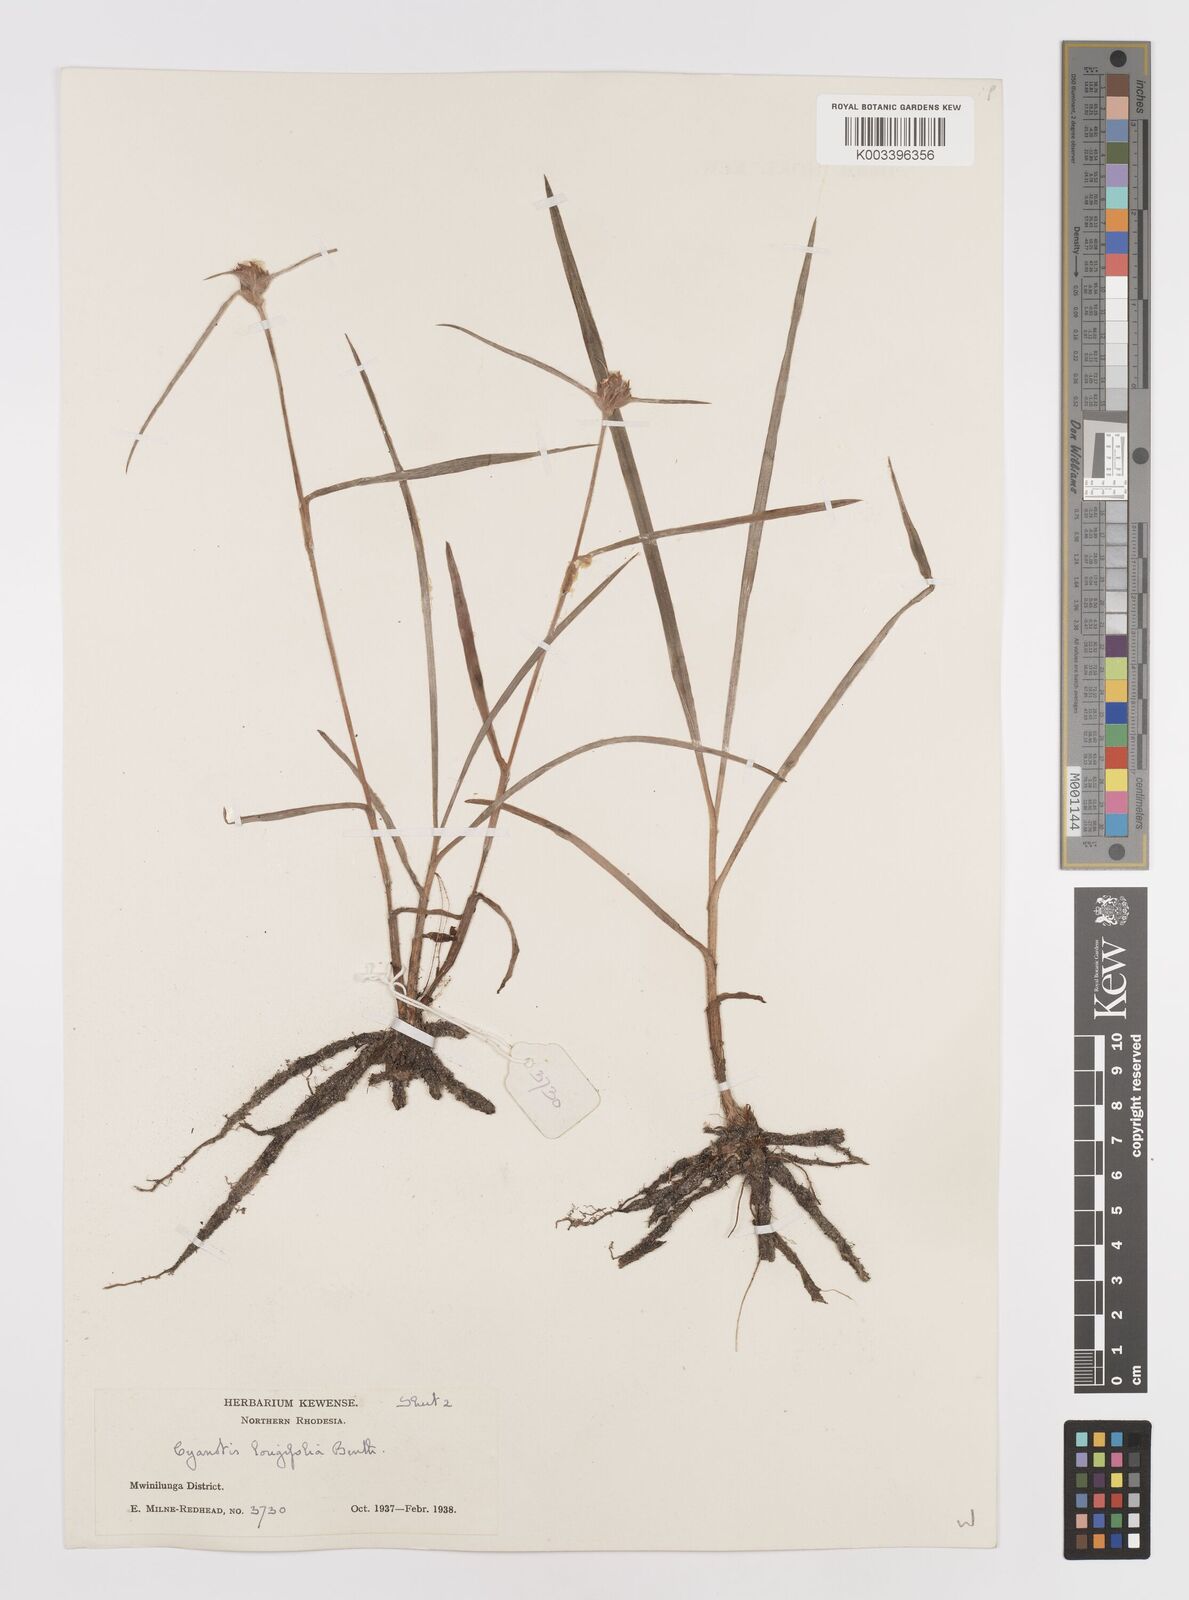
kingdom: Plantae
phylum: Tracheophyta
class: Liliopsida
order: Commelinales
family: Commelinaceae
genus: Cyanotis
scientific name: Cyanotis longifolia
